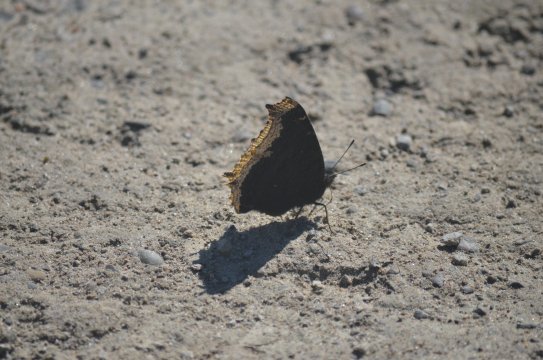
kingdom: Animalia
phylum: Arthropoda
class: Insecta
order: Lepidoptera
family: Nymphalidae
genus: Nymphalis
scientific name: Nymphalis antiopa
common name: Mourning Cloak
